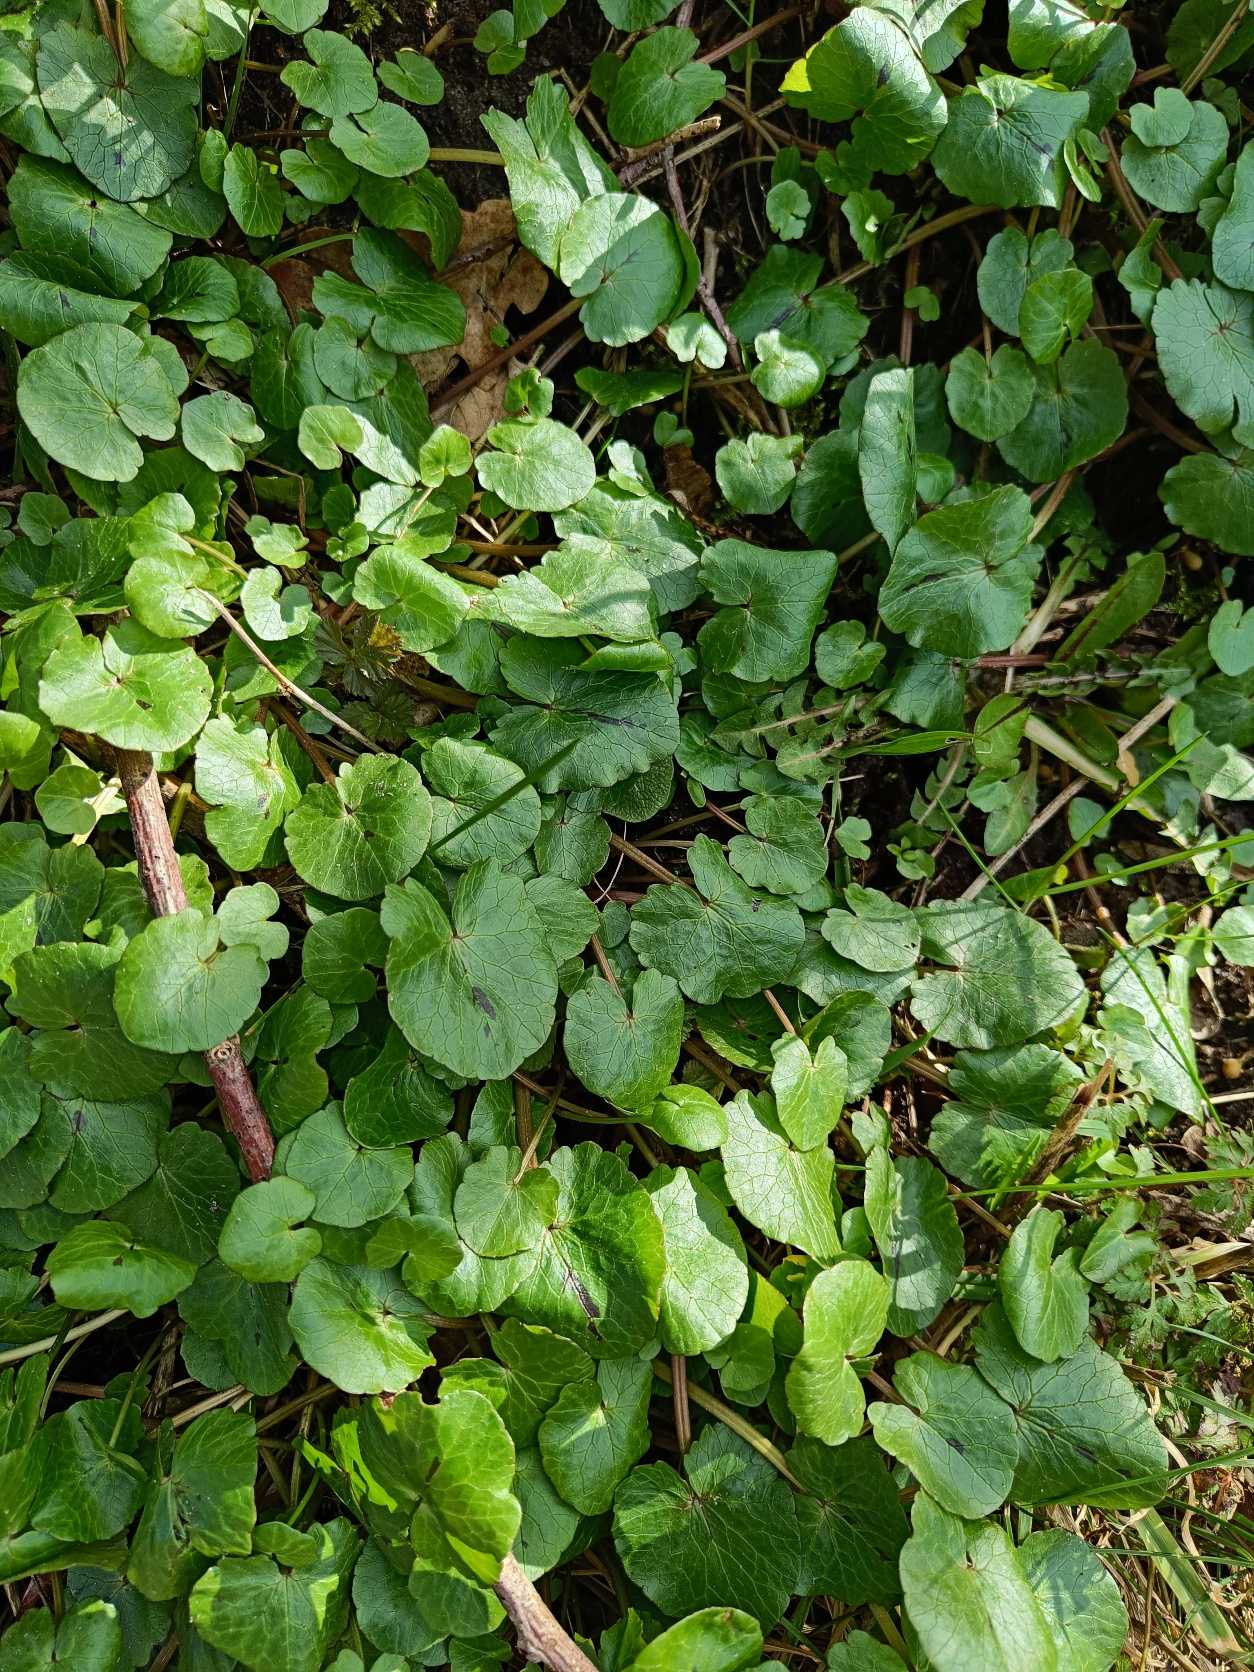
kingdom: Plantae
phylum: Tracheophyta
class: Magnoliopsida
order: Ranunculales
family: Ranunculaceae
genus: Ficaria
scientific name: Ficaria verna
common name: Vorterod
